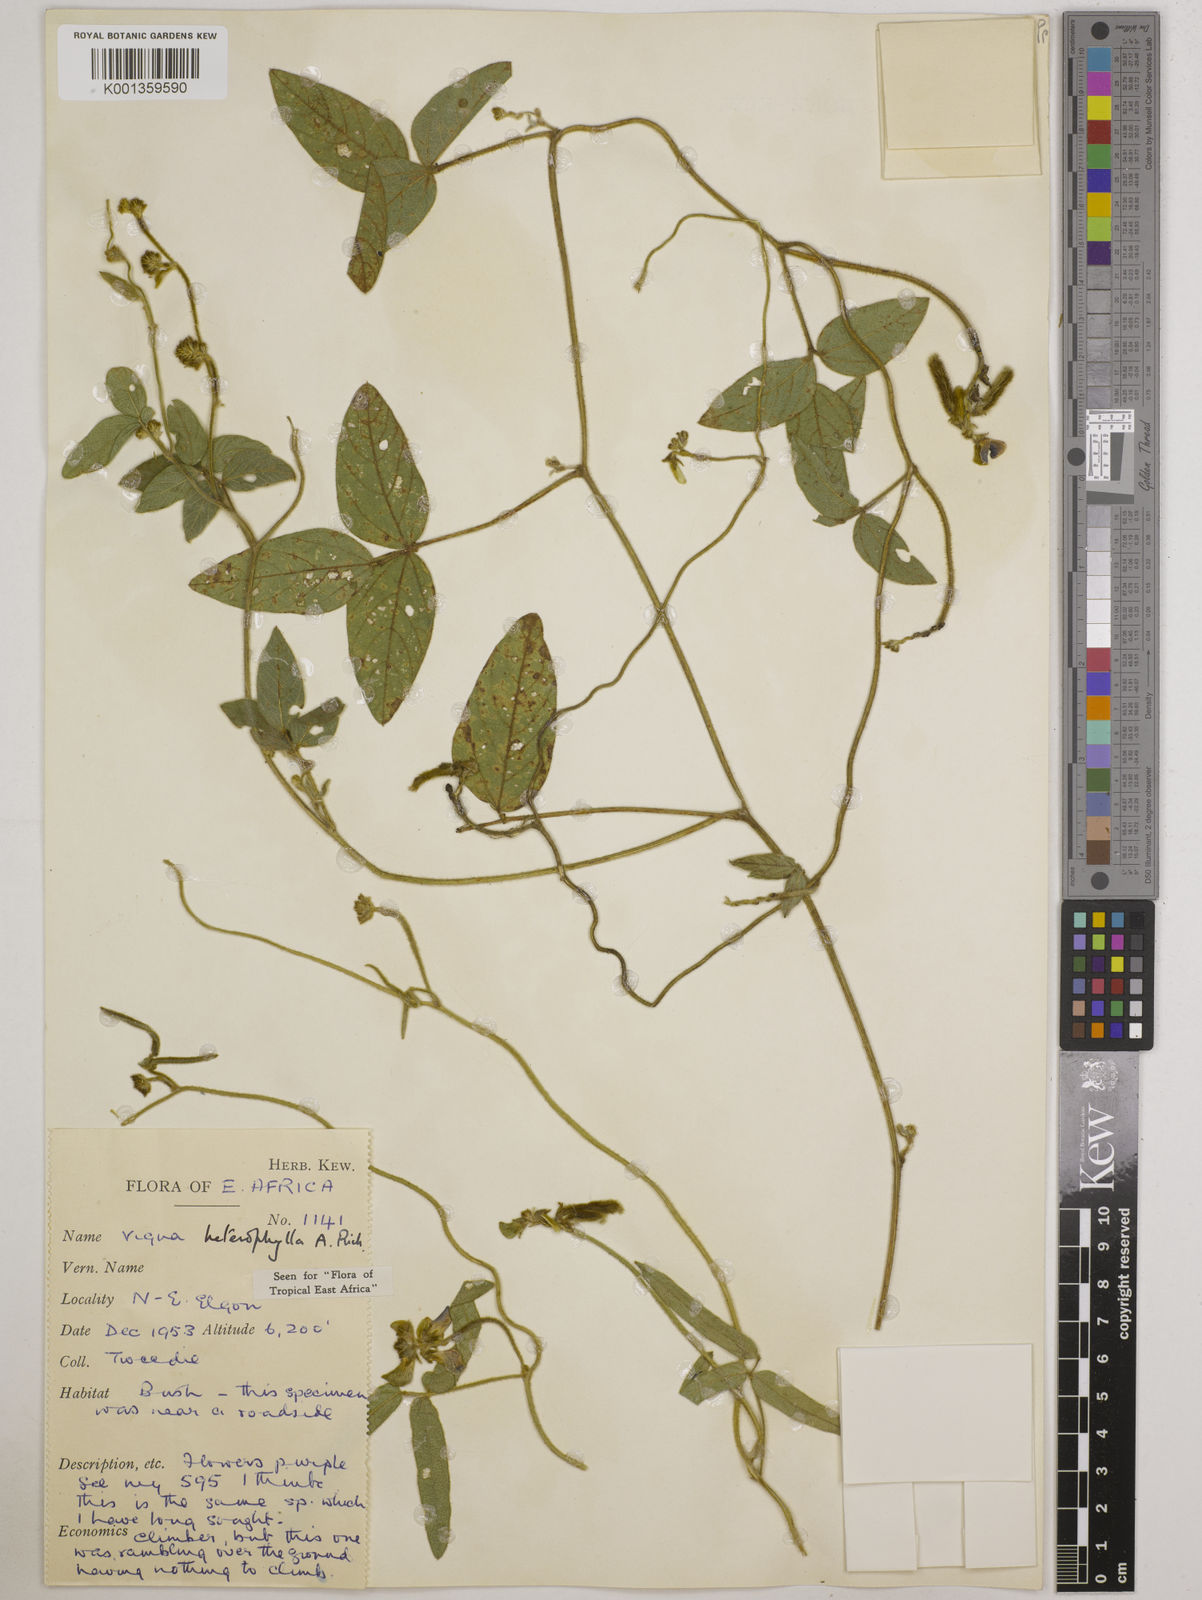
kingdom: Plantae
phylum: Tracheophyta
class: Magnoliopsida
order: Fabales
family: Fabaceae
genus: Vigna
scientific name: Vigna heterophylla
